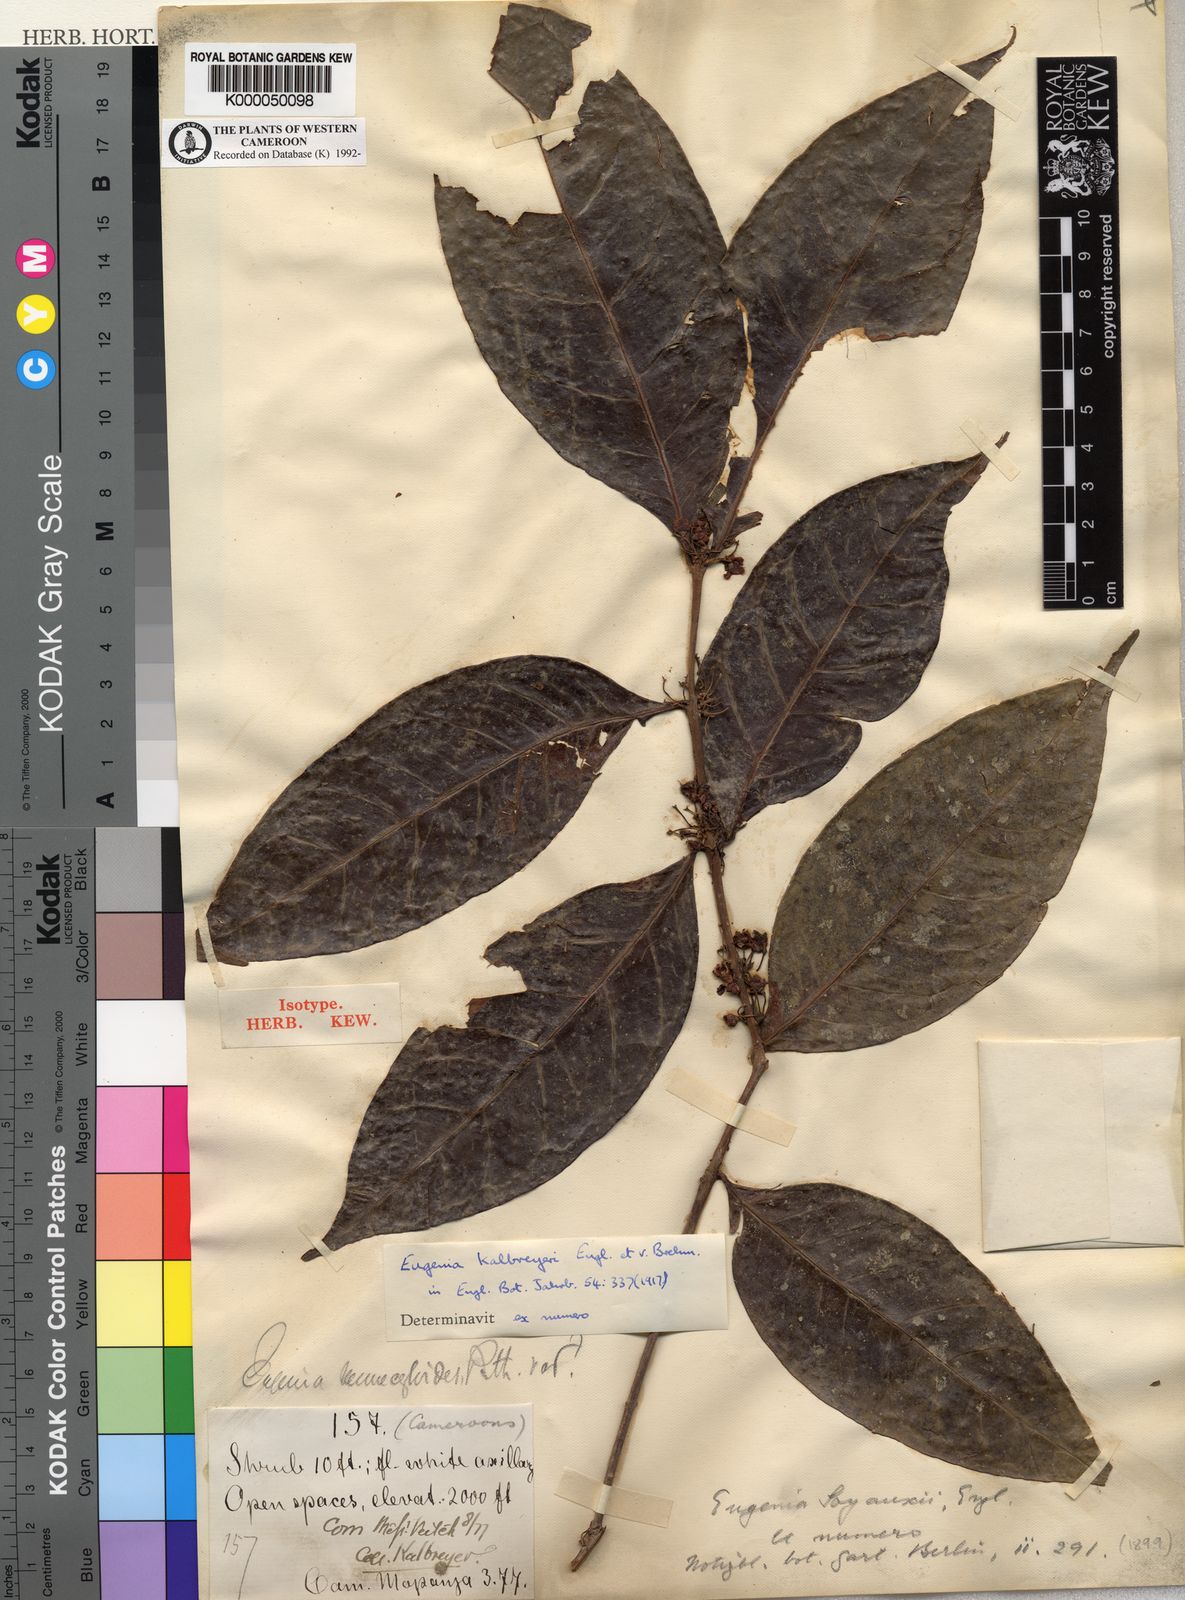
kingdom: Plantae
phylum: Tracheophyta
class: Magnoliopsida
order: Myrtales
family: Myrtaceae
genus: Eugenia
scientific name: Eugenia kalbreyeri
